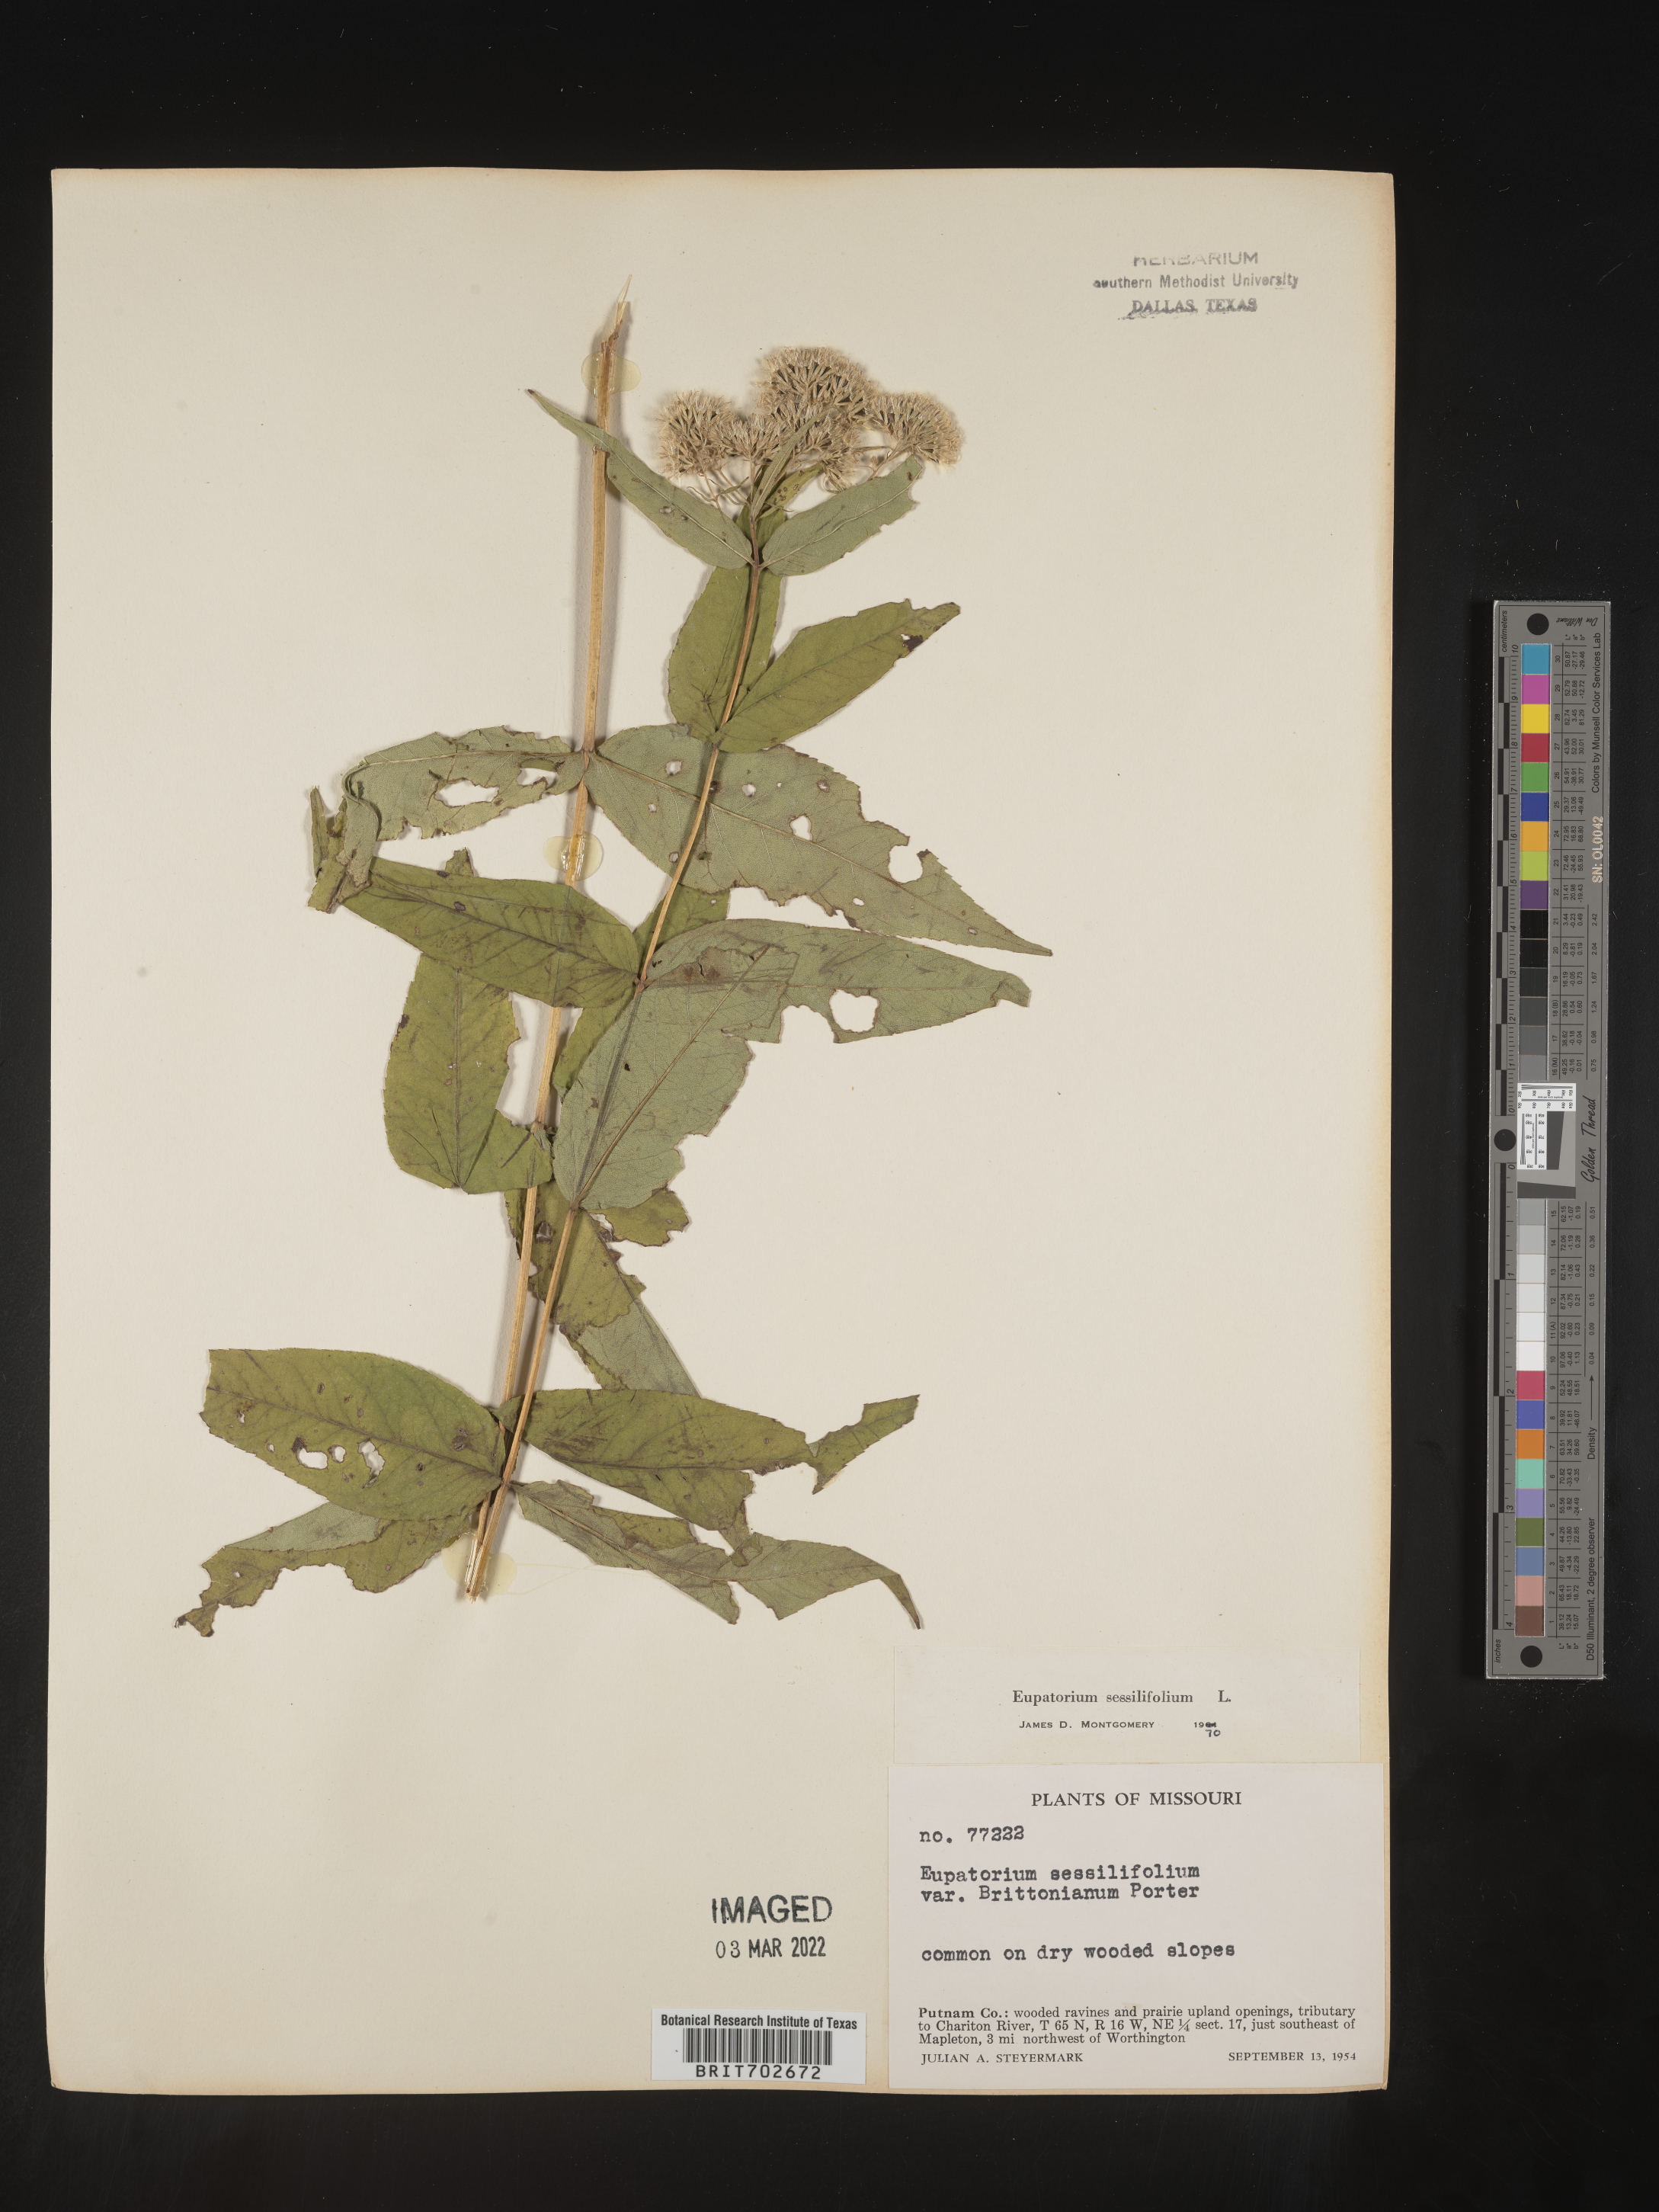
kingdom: Plantae
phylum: Tracheophyta
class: Magnoliopsida
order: Asterales
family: Asteraceae
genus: Eupatorium
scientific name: Eupatorium sessilifolium
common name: Upland boneset
